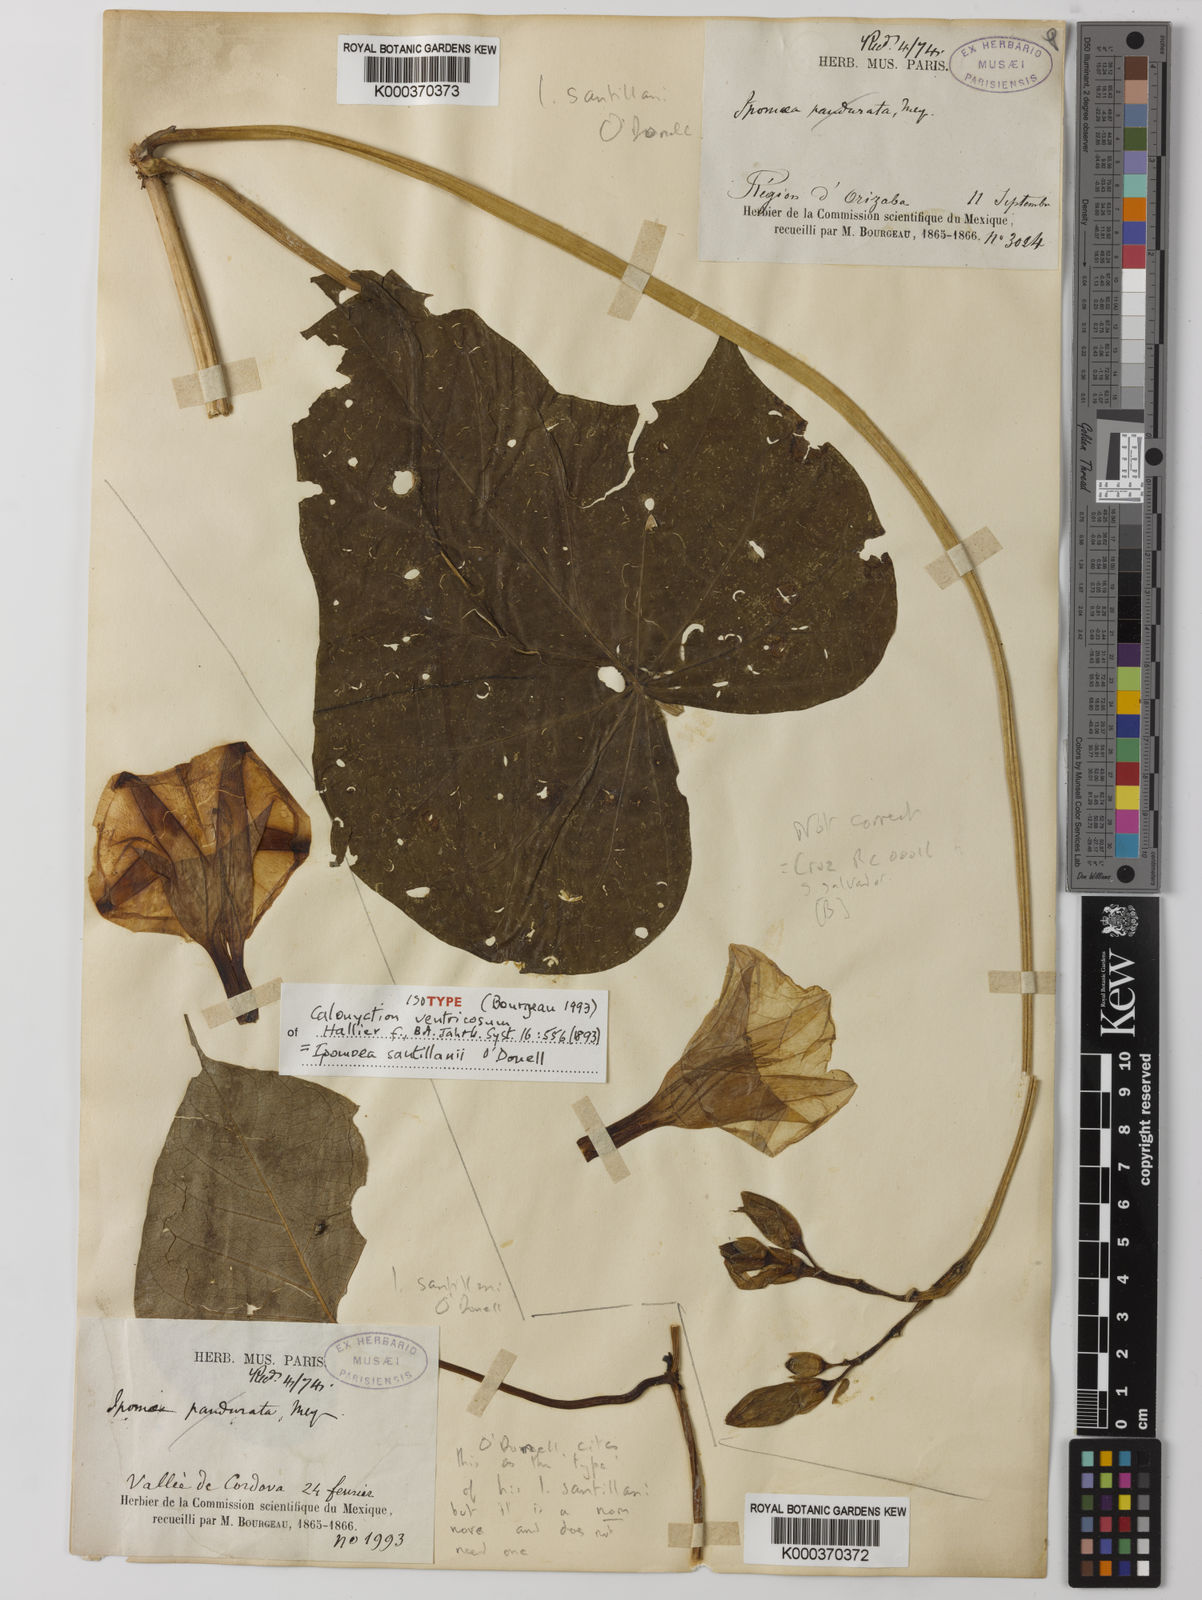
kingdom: Plantae
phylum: Tracheophyta
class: Magnoliopsida
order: Solanales
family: Convolvulaceae
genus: Ipomoea
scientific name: Ipomoea santillanii
